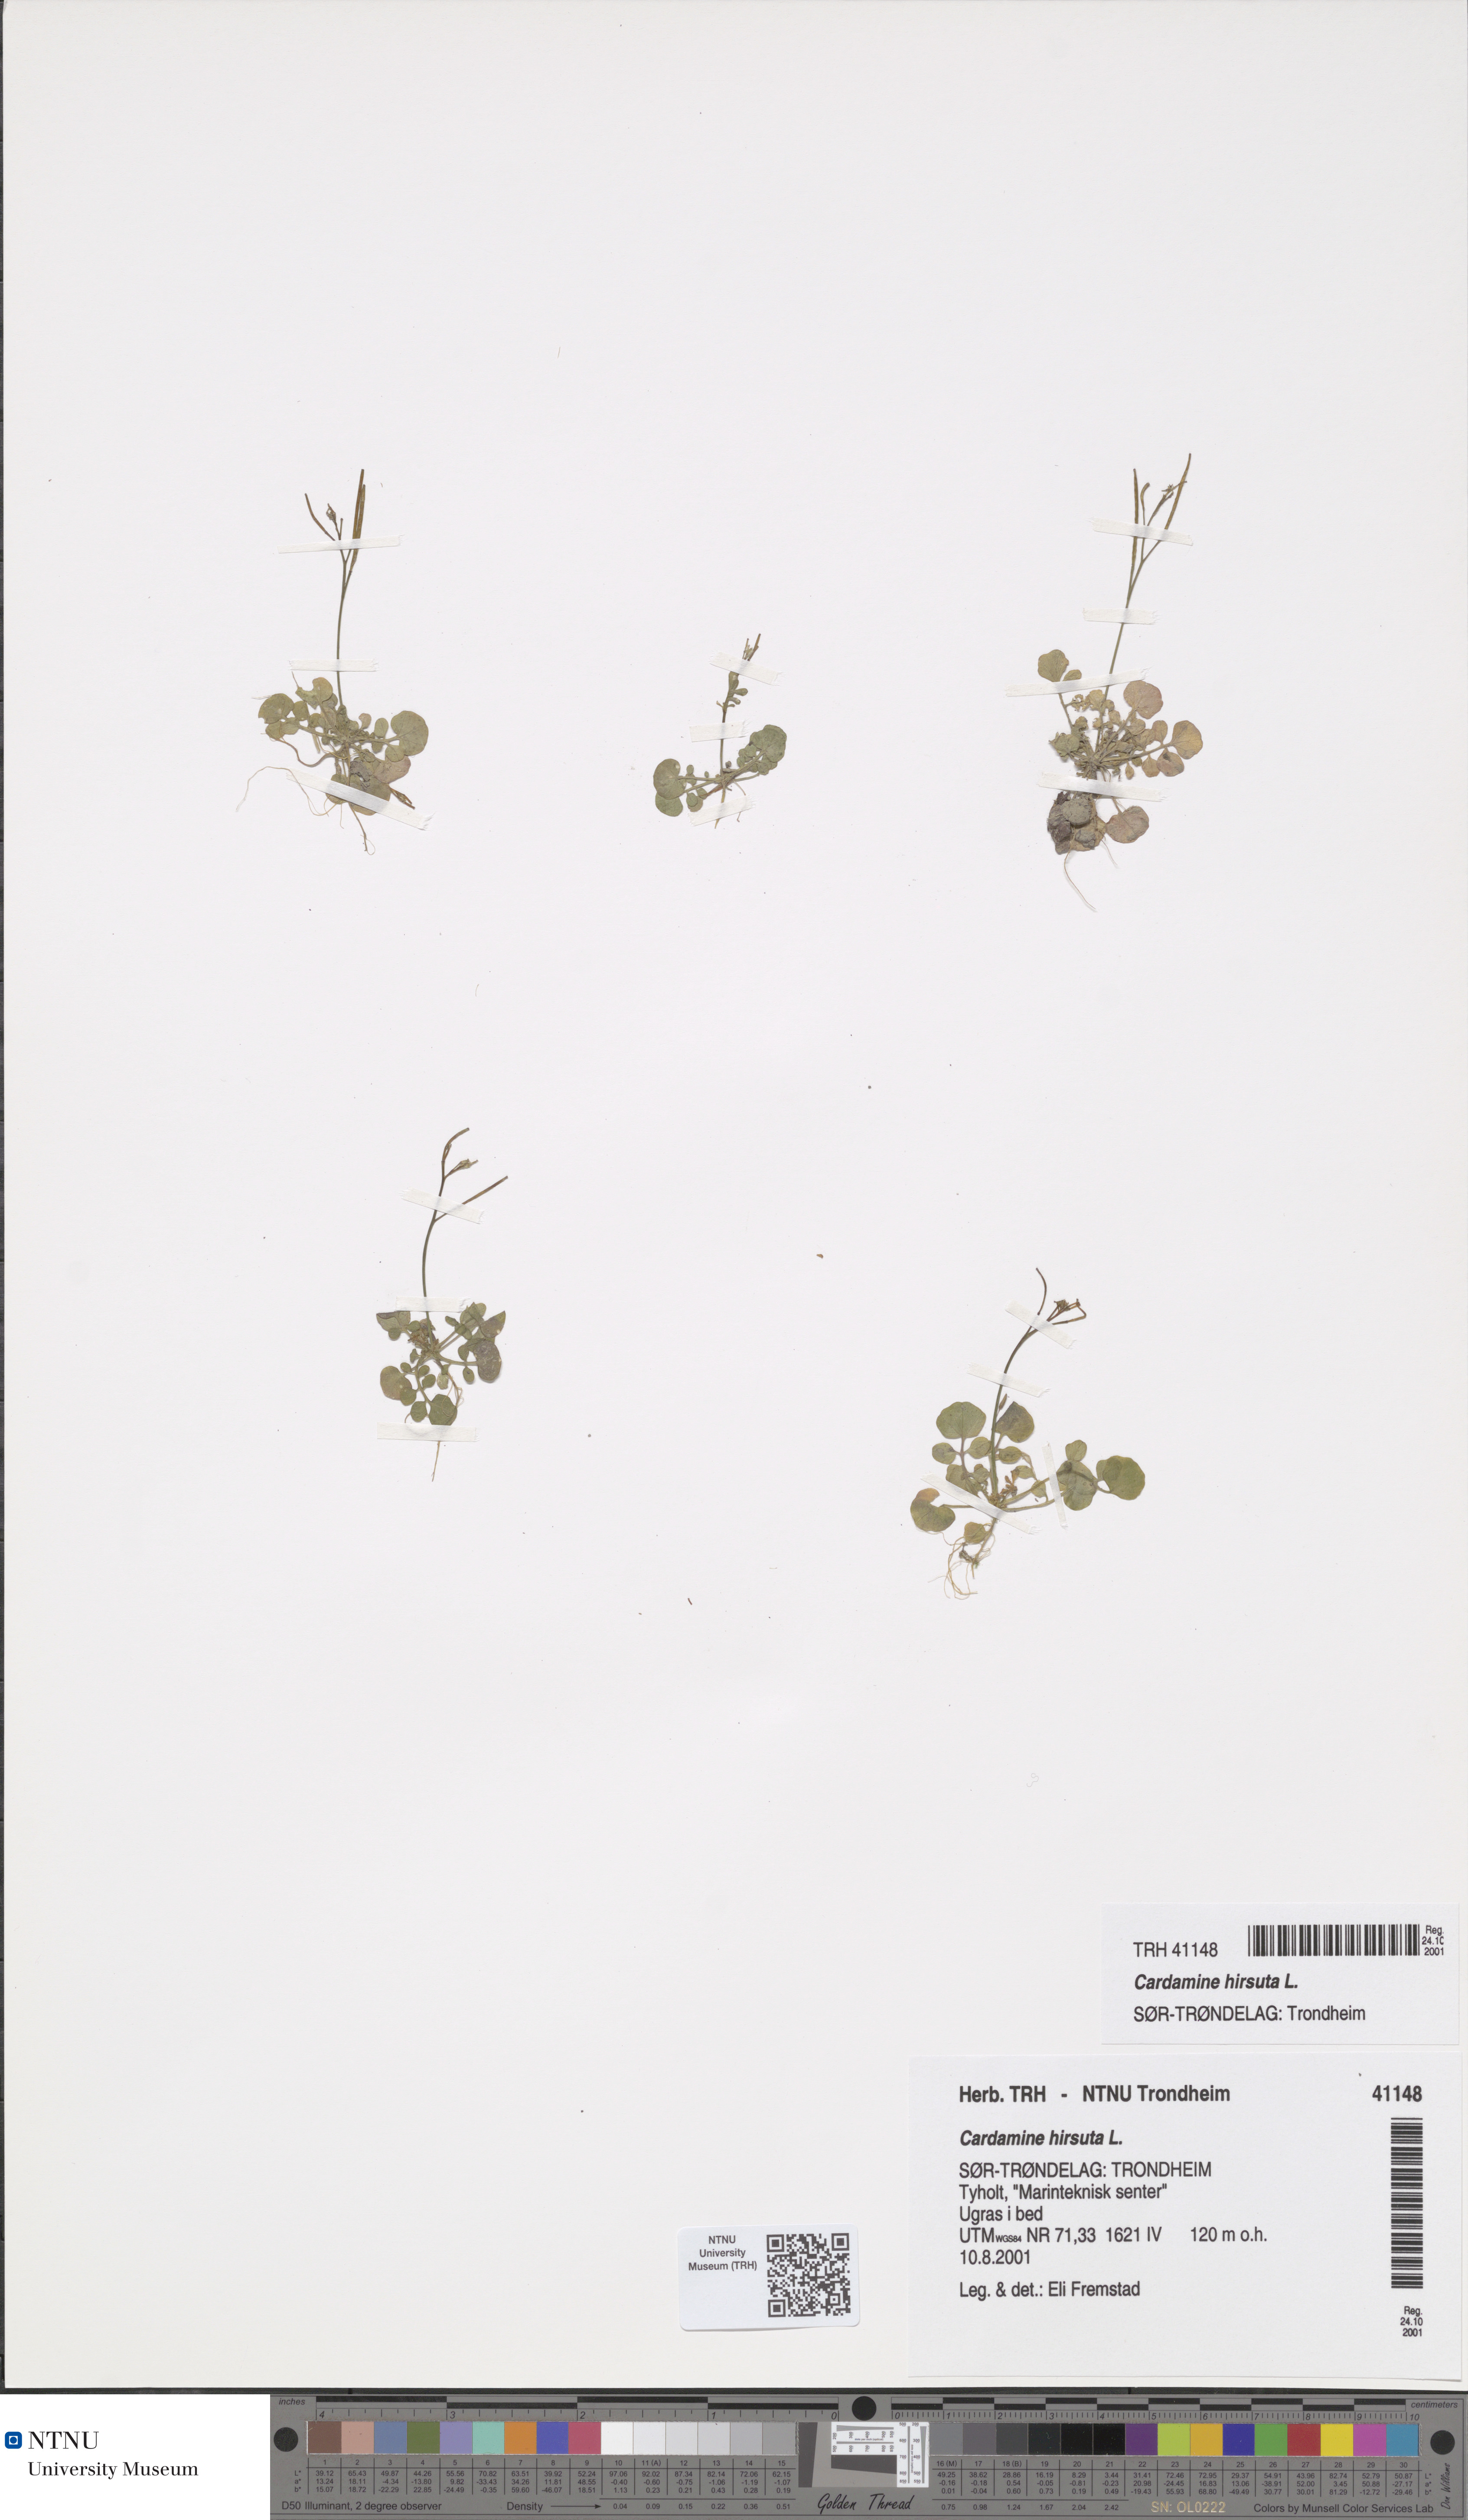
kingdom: Plantae
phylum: Tracheophyta
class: Magnoliopsida
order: Brassicales
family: Brassicaceae
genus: Cardamine
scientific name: Cardamine hirsuta
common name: Hairy bittercress
